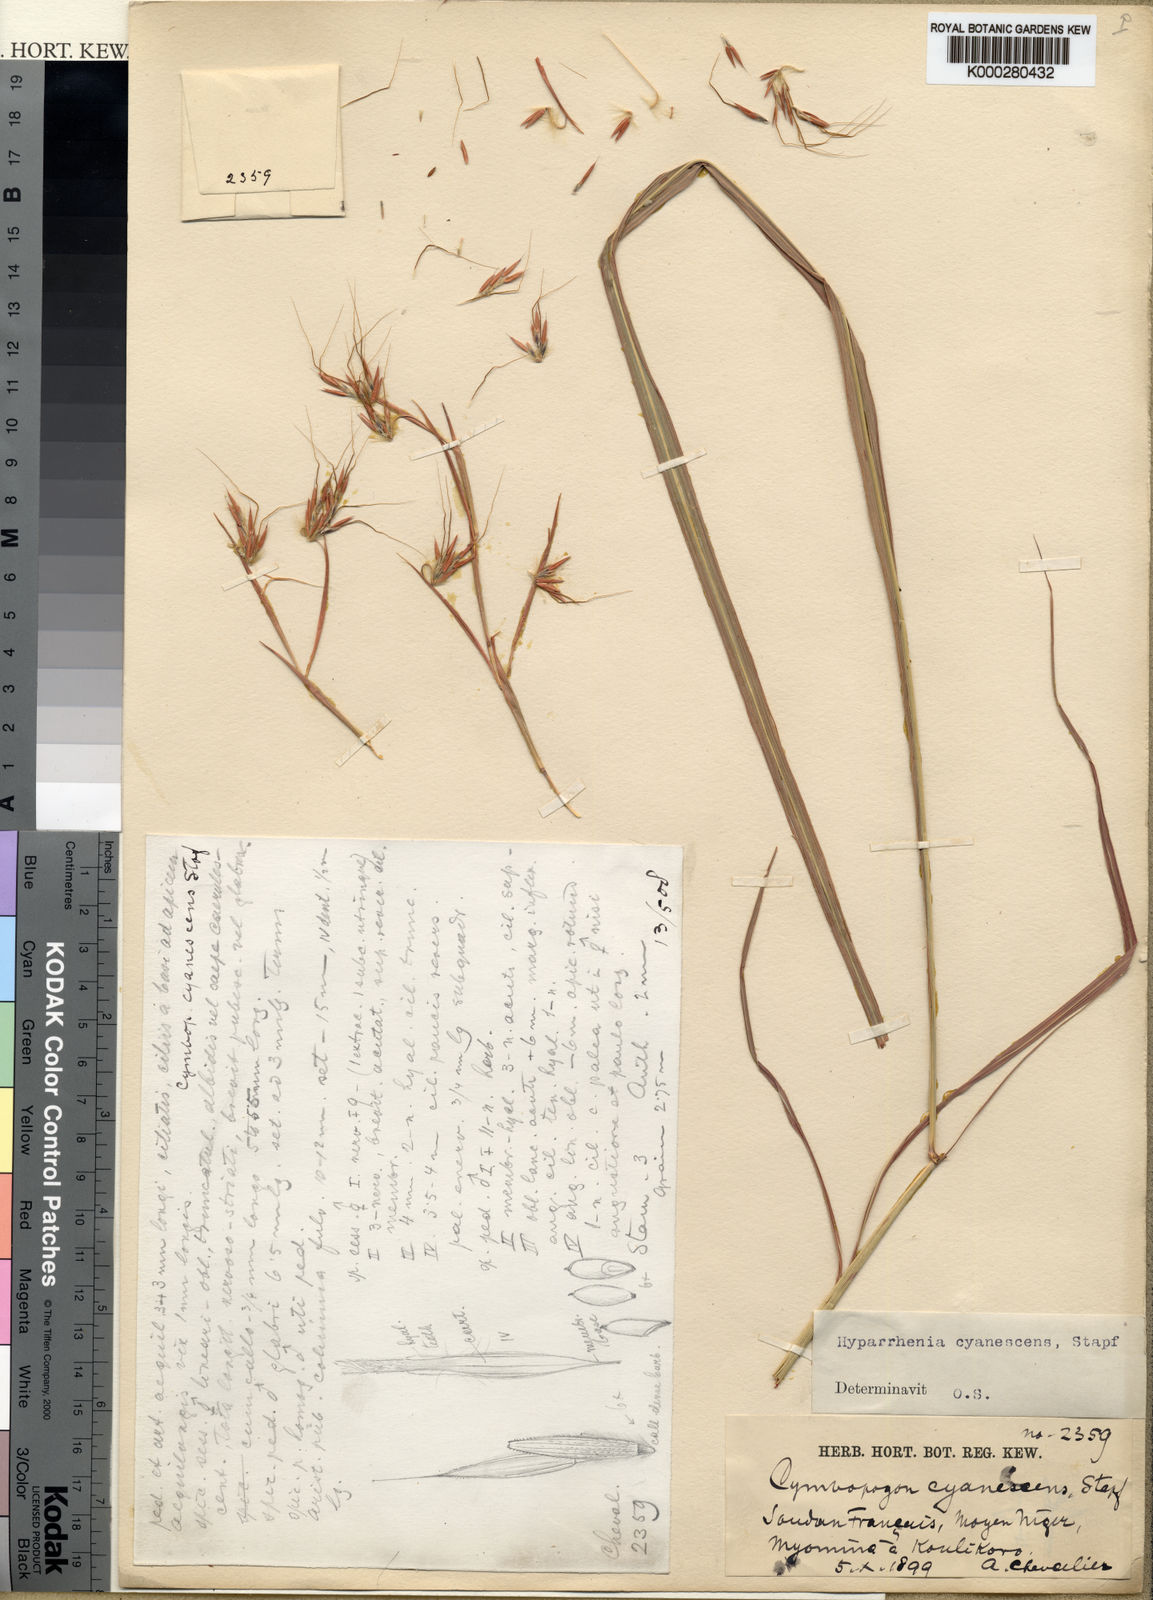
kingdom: Plantae
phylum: Tracheophyta
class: Liliopsida
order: Poales
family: Poaceae
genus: Hyparrhenia
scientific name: Hyparrhenia cyanescens
